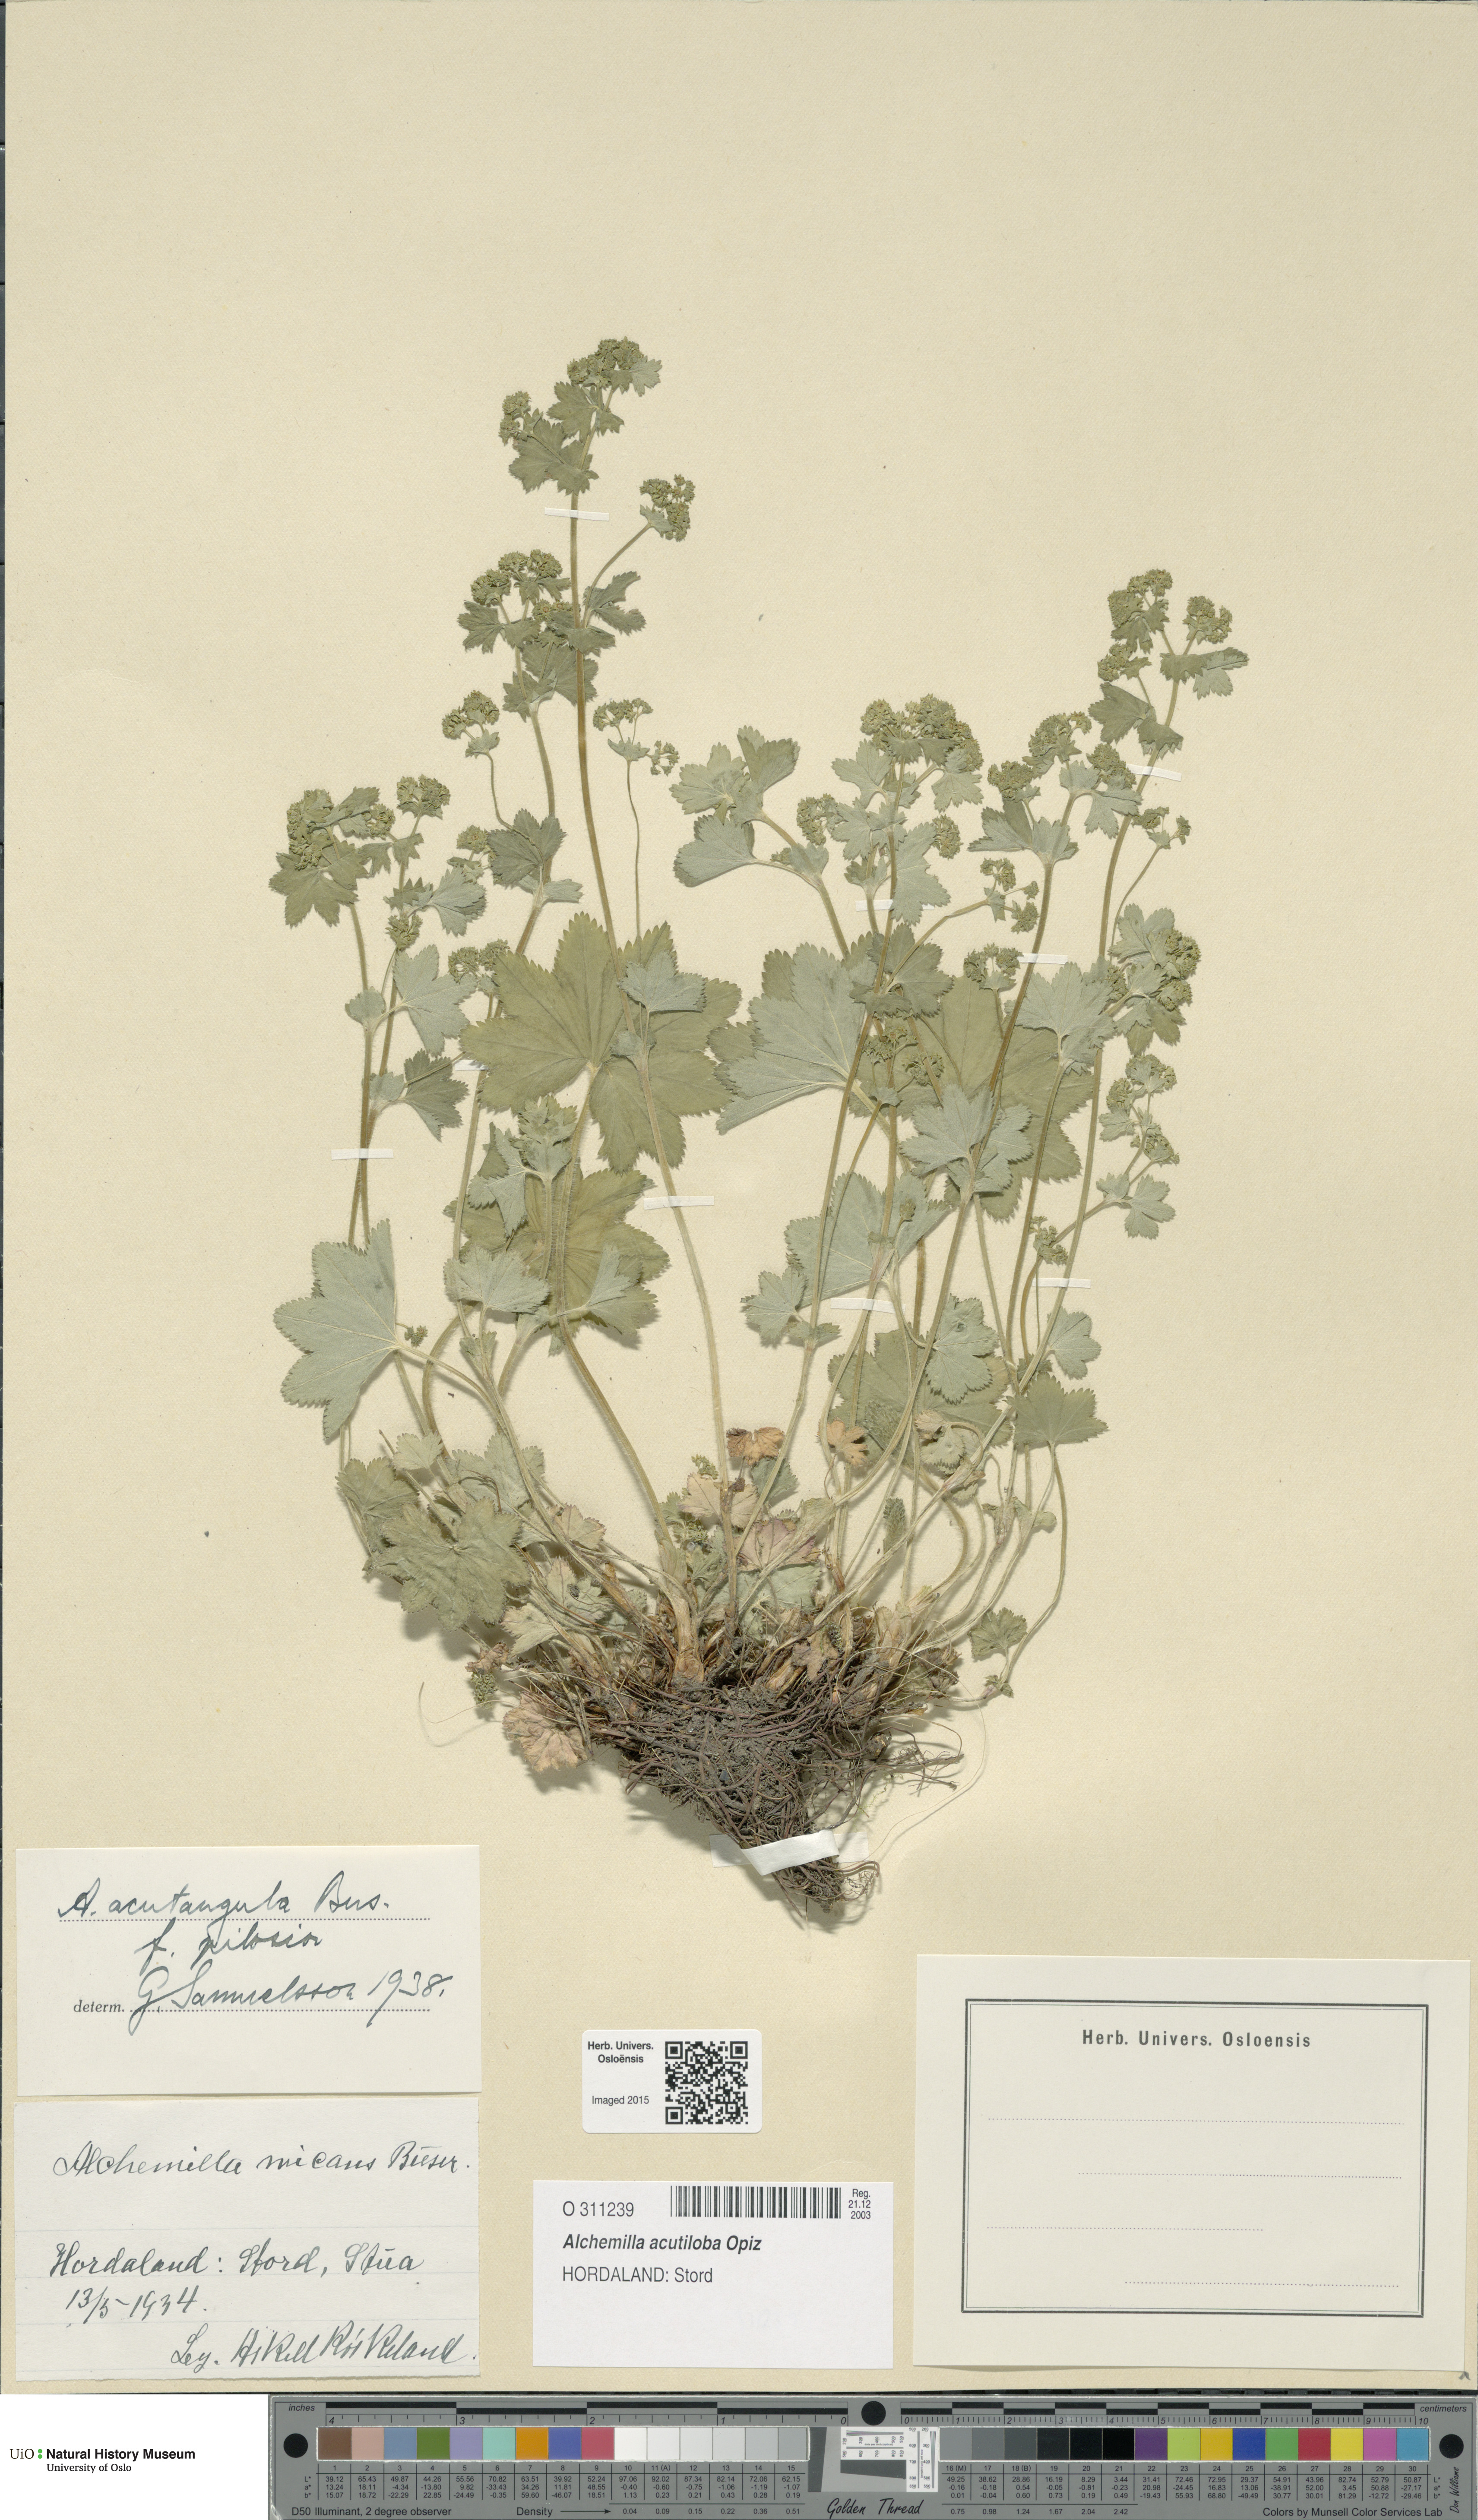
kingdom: Plantae
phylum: Tracheophyta
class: Magnoliopsida
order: Rosales
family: Rosaceae
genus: Alchemilla
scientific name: Alchemilla vulgaris
